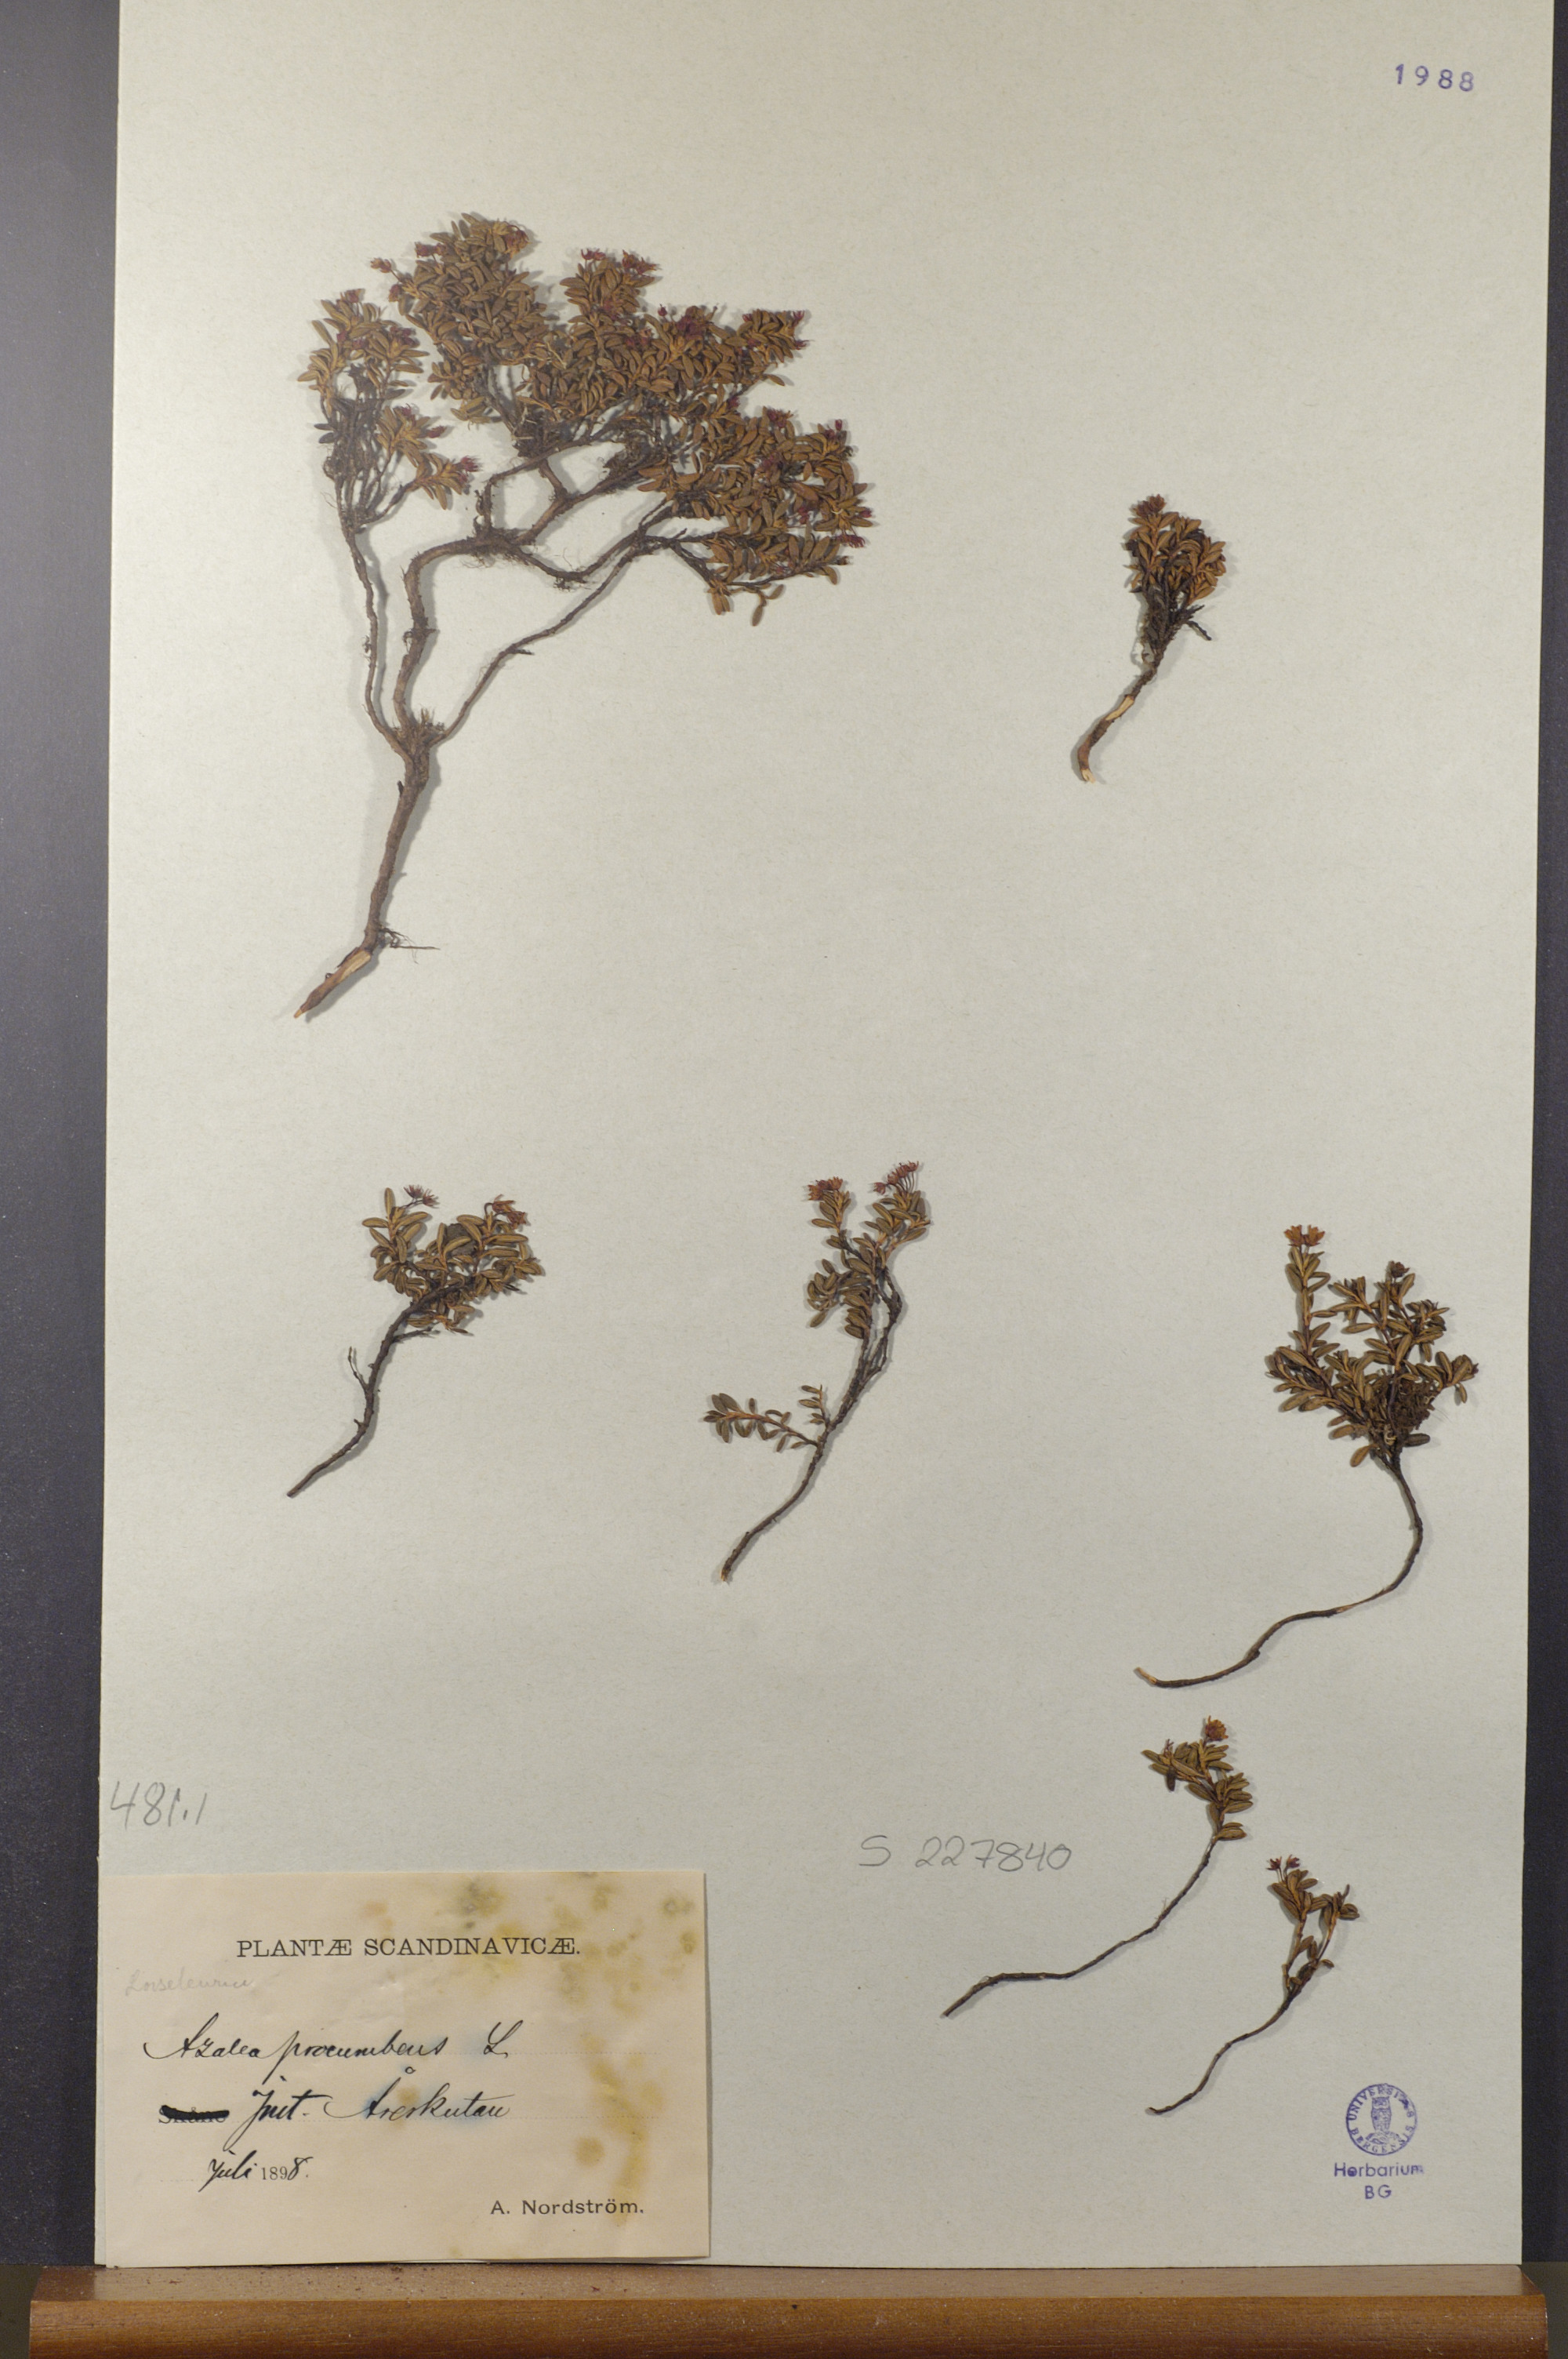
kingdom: Plantae
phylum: Tracheophyta
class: Magnoliopsida
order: Ericales
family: Ericaceae
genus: Kalmia
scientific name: Kalmia procumbens
